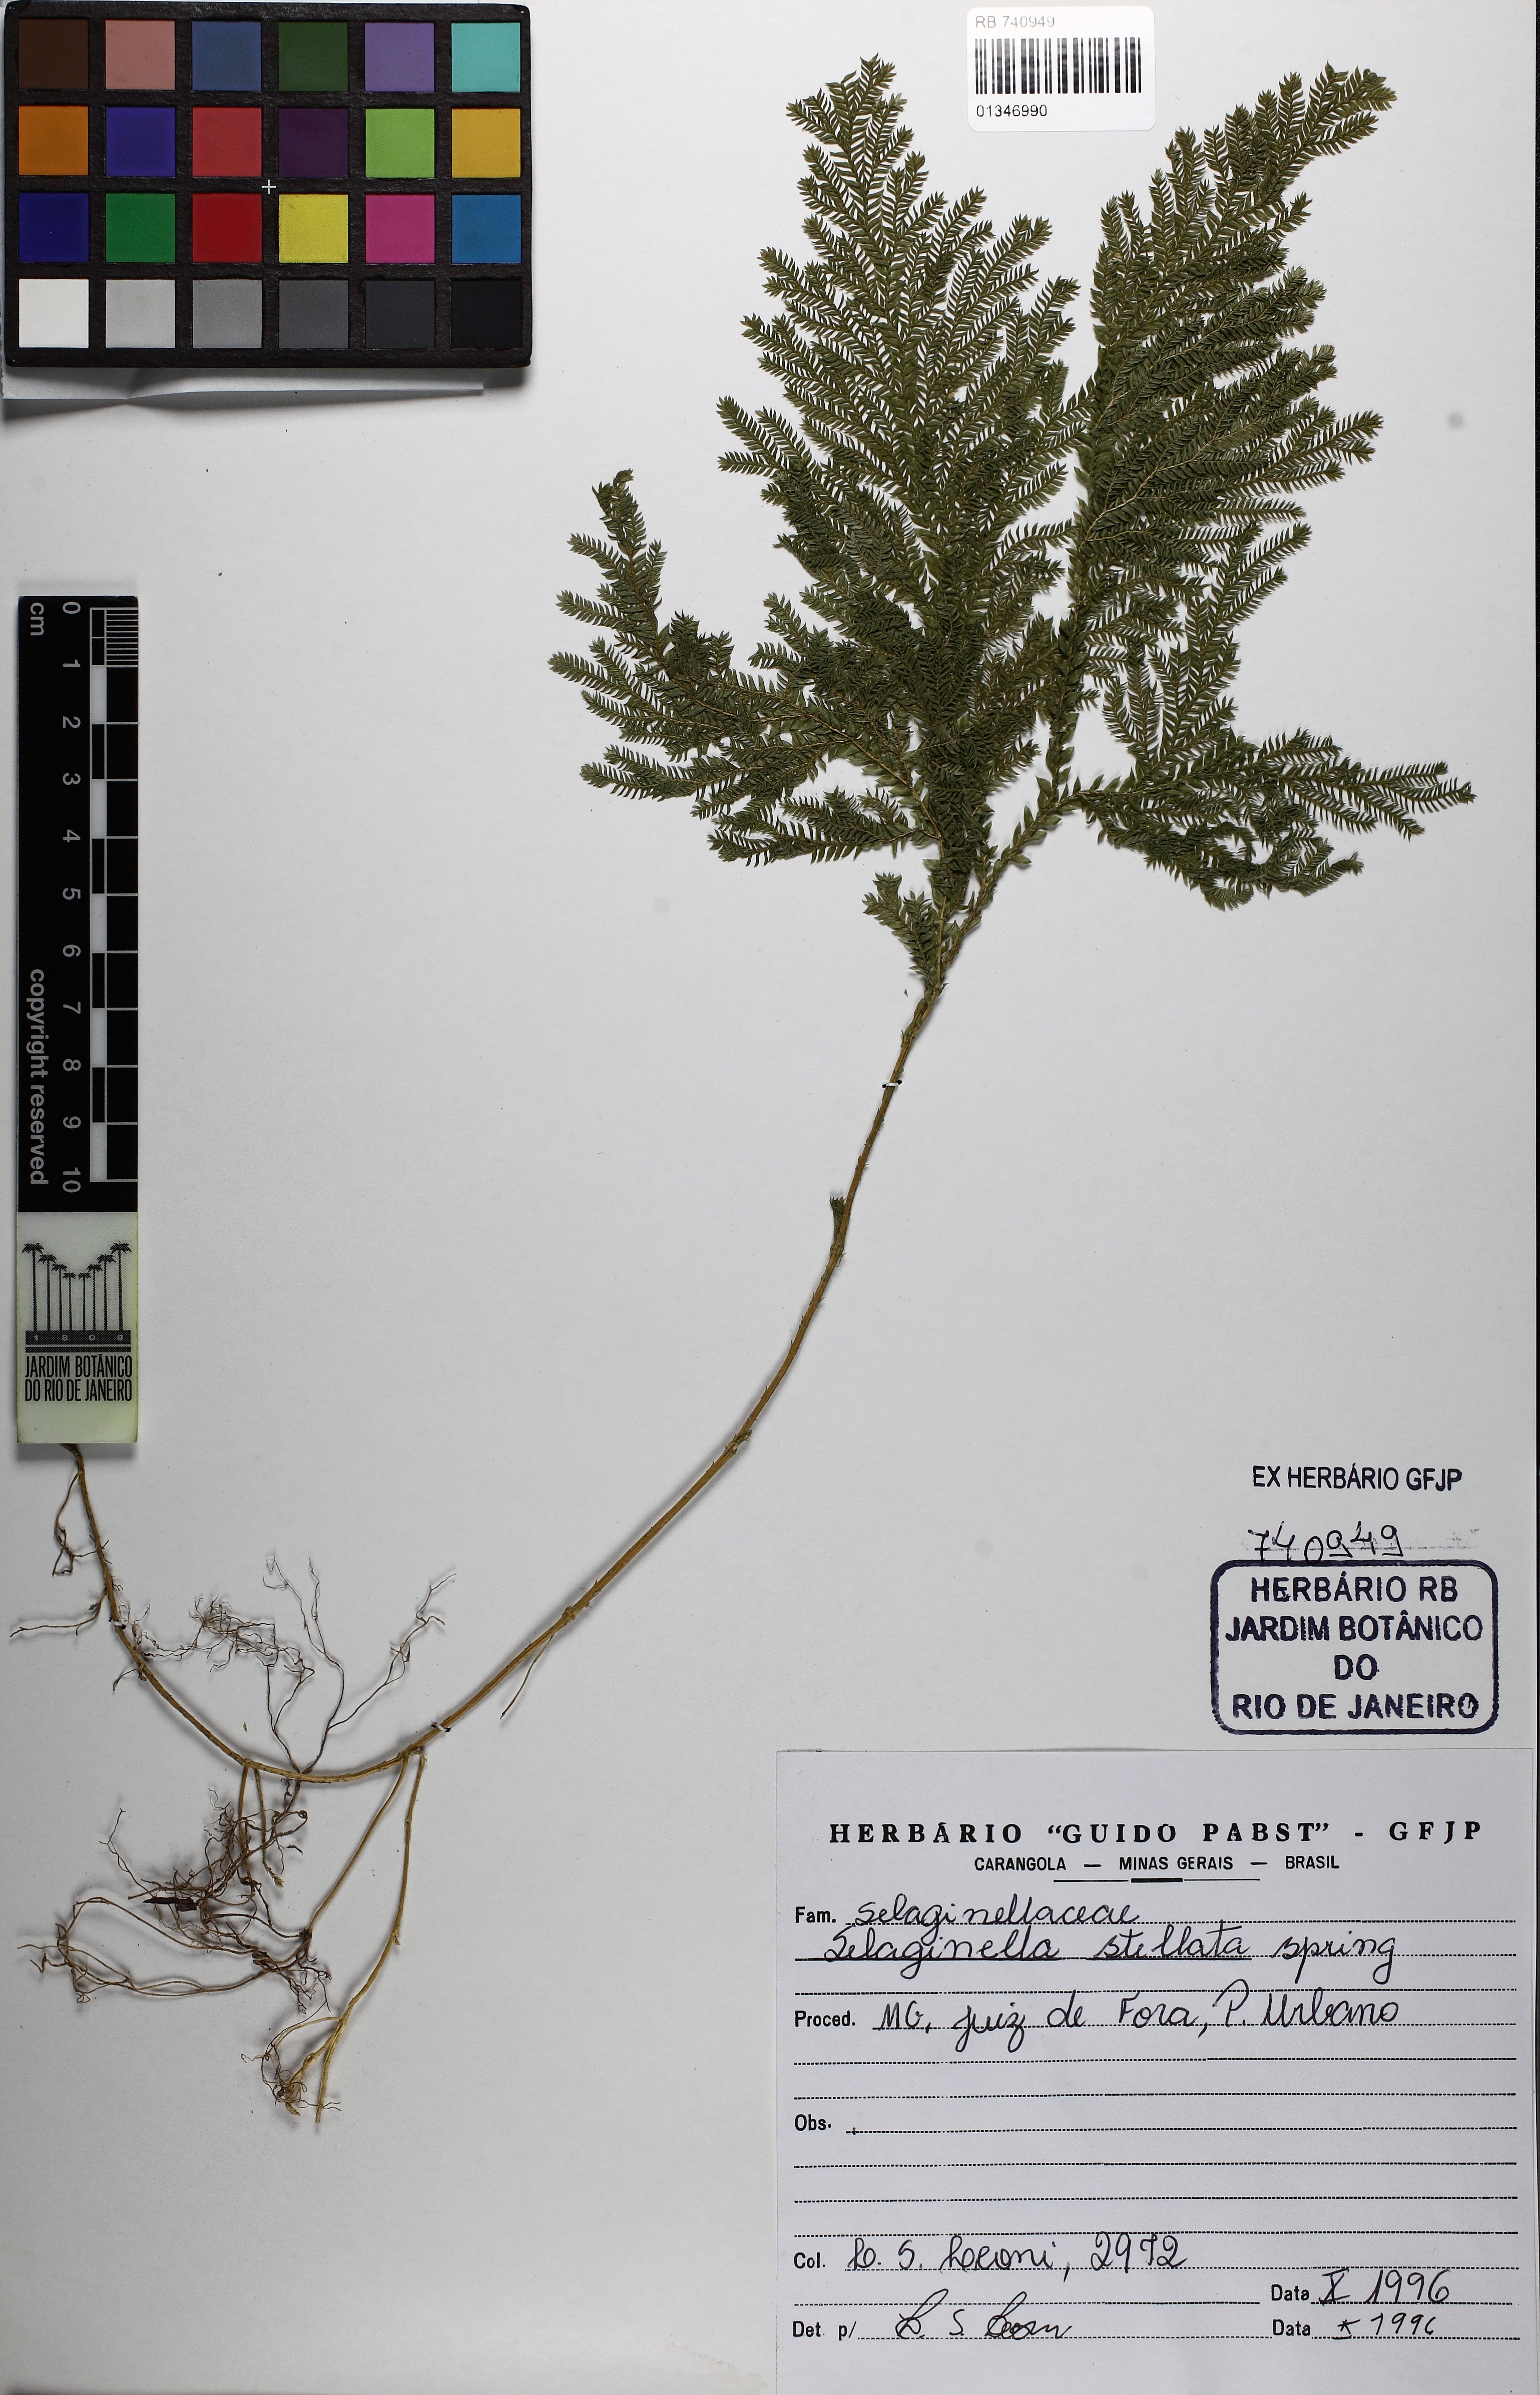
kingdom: Plantae
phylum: Tracheophyta
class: Lycopodiopsida
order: Selaginellales
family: Selaginellaceae
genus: Selaginella
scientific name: Selaginella stellata
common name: Starry spikemoss
